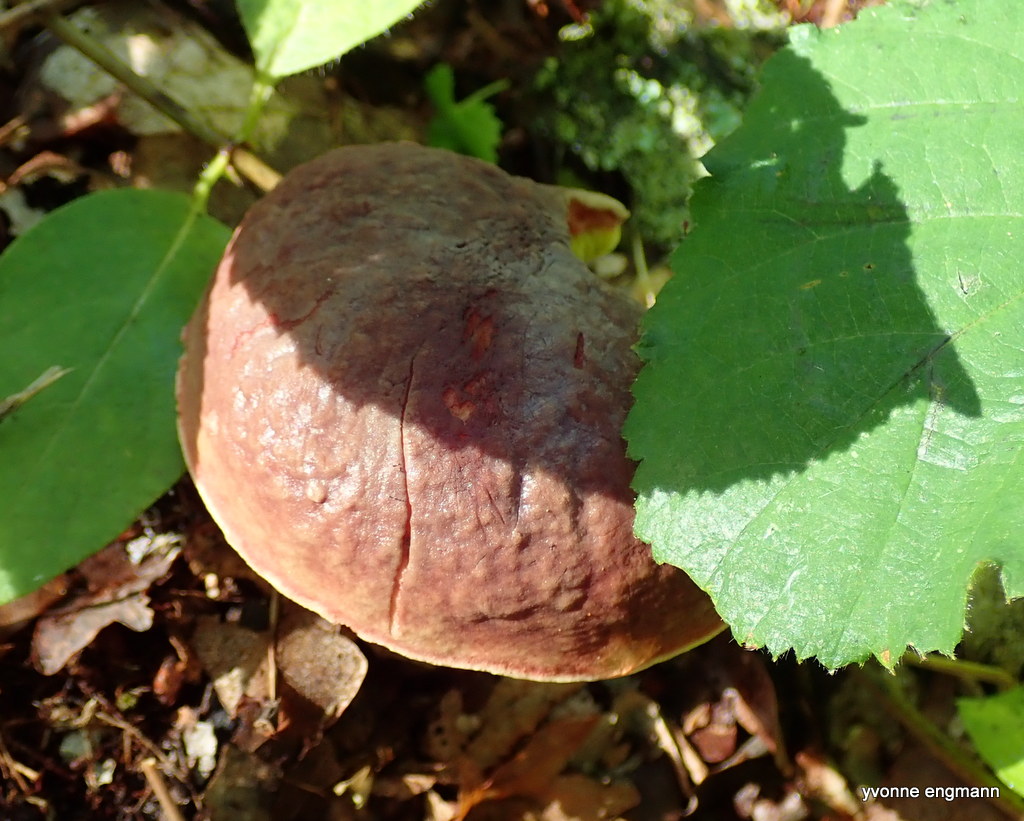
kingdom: Fungi
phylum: Basidiomycota
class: Agaricomycetes
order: Boletales
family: Boletaceae
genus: Xerocomellus
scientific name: Xerocomellus pruinatus
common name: dugget rørhat
